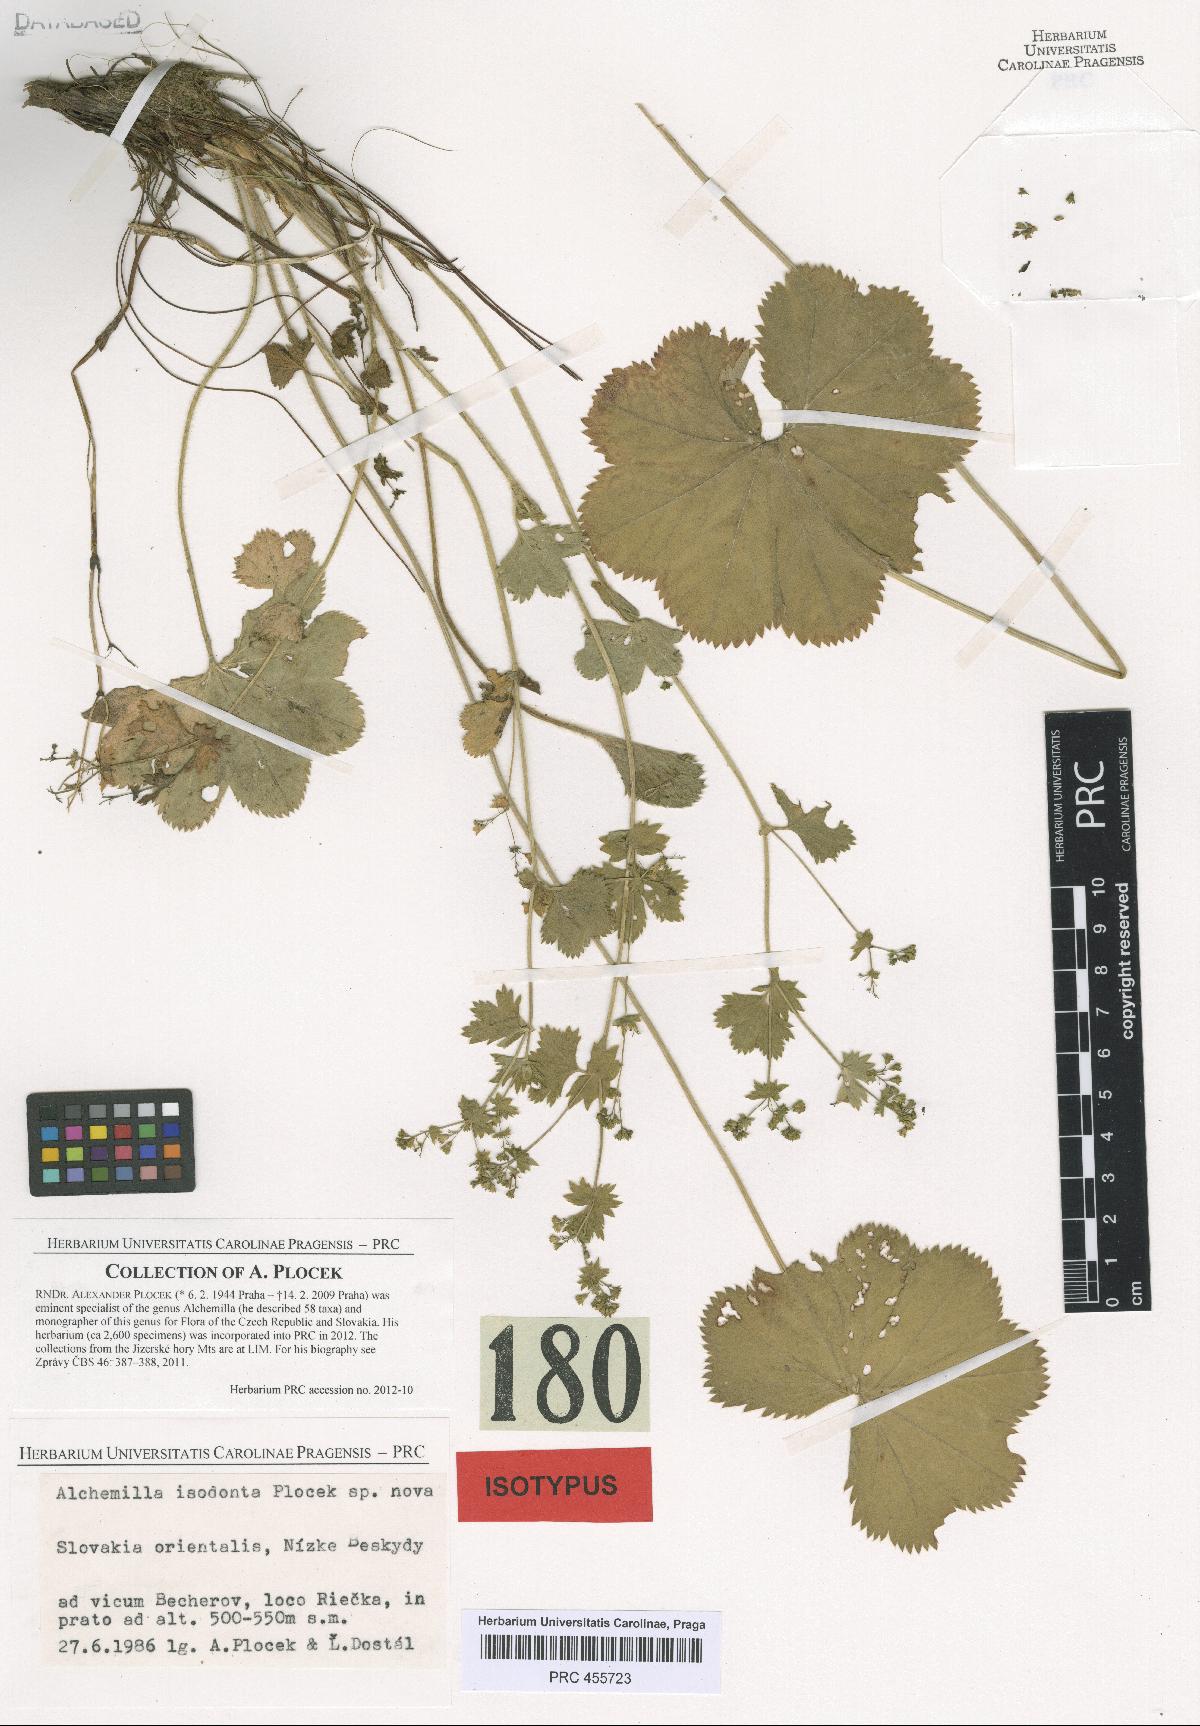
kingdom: Plantae
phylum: Tracheophyta
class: Magnoliopsida
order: Rosales
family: Rosaceae
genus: Alchemilla
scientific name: Alchemilla isodonta
